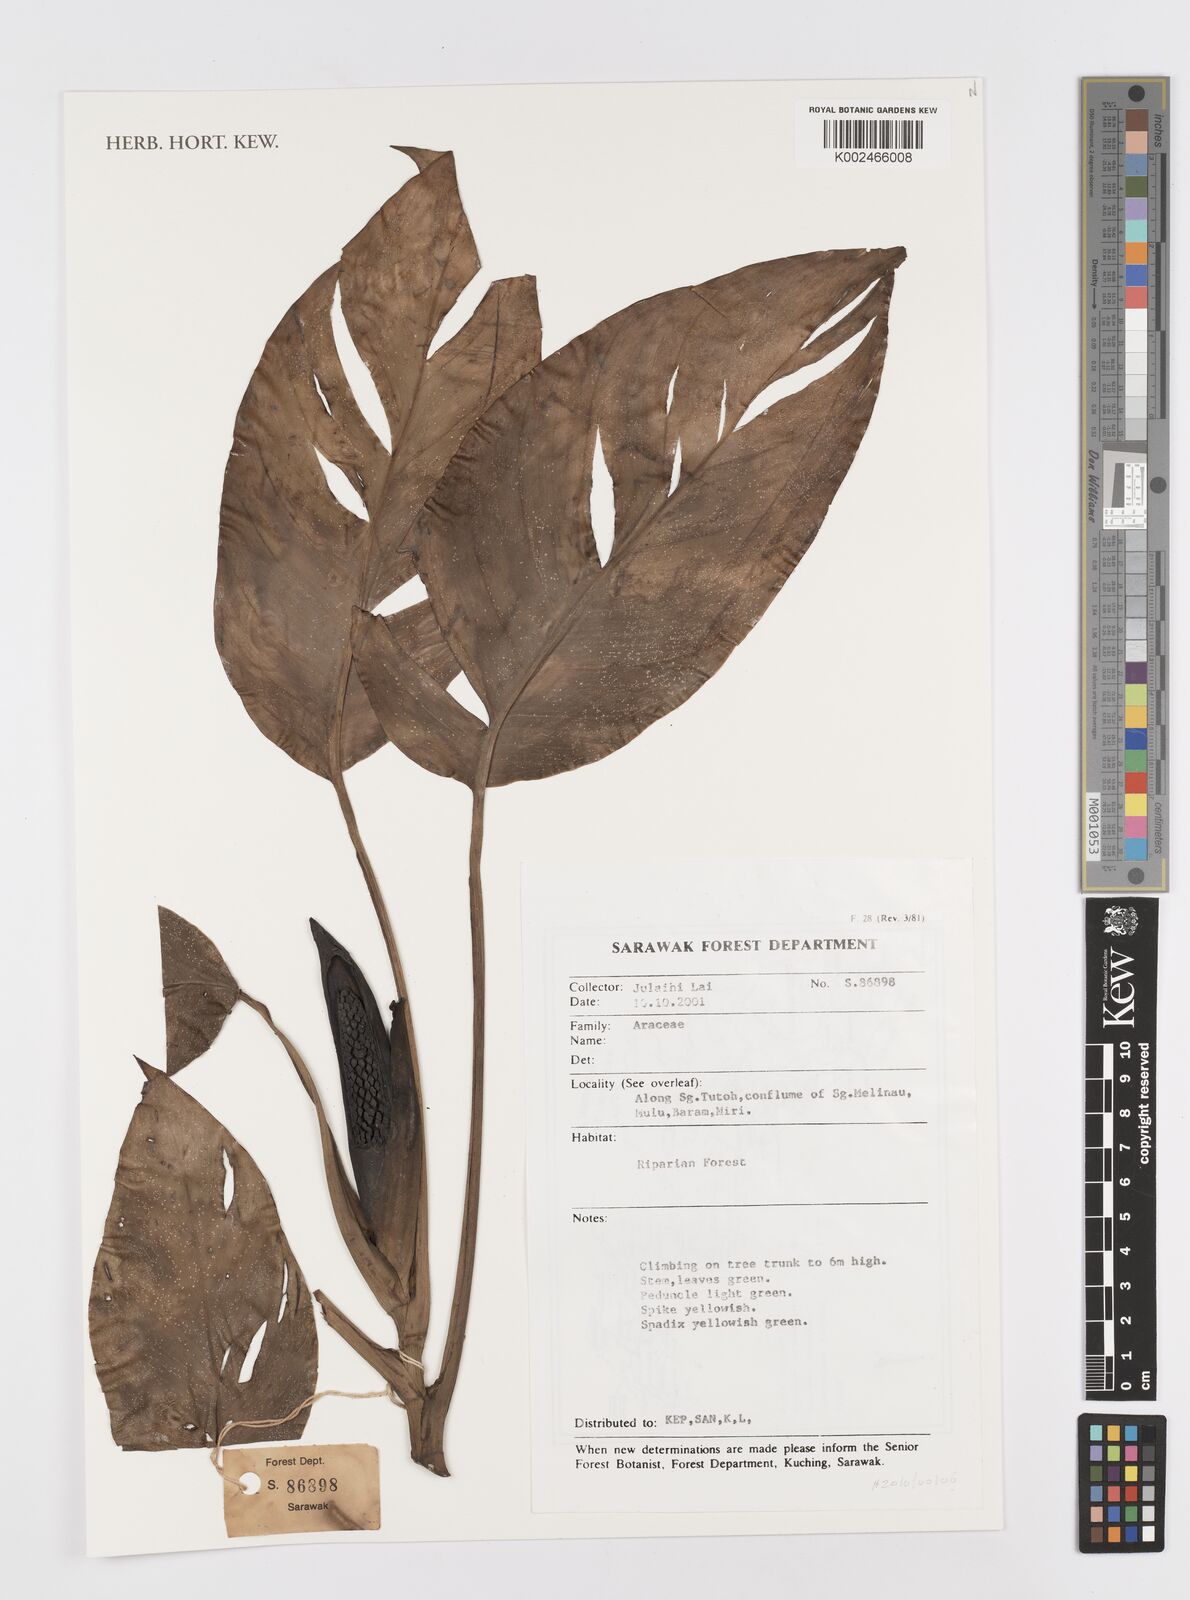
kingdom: Plantae
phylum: Tracheophyta
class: Liliopsida
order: Alismatales
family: Araceae
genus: Rhaphidophora
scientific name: Rhaphidophora
